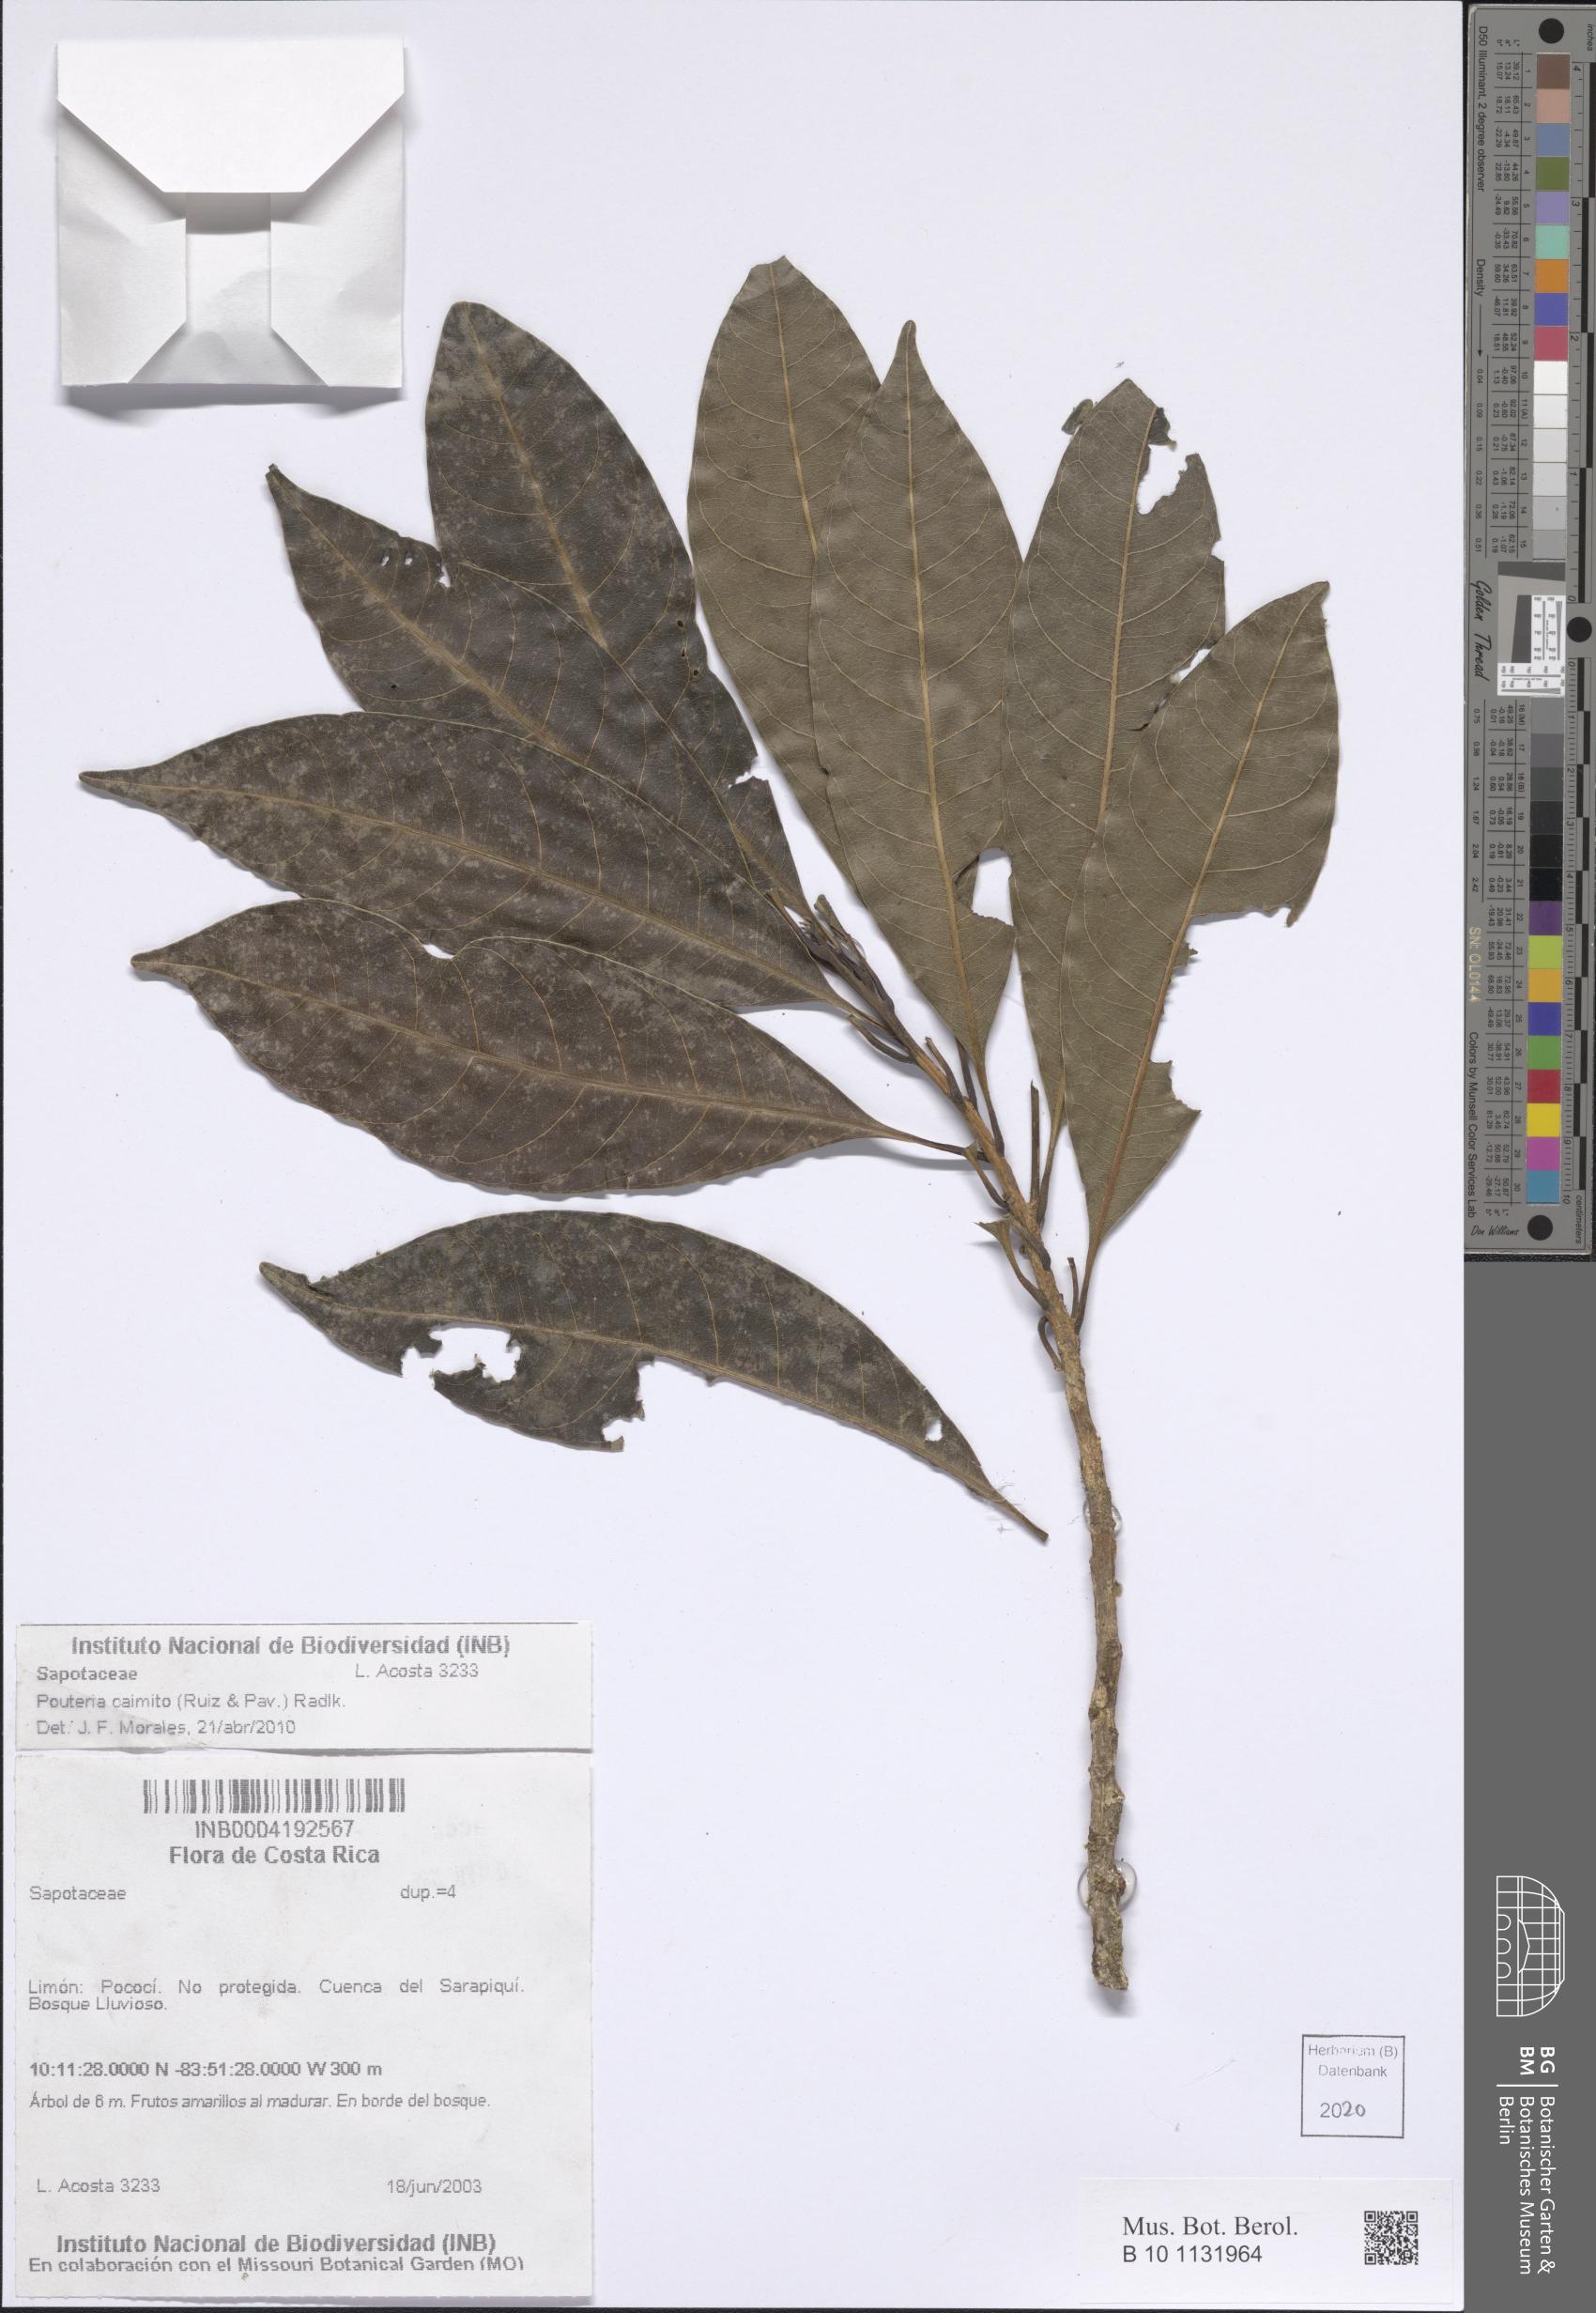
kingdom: Plantae
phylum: Tracheophyta
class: Magnoliopsida
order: Ericales
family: Sapotaceae
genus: Pouteria
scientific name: Pouteria caimito
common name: Caimito
